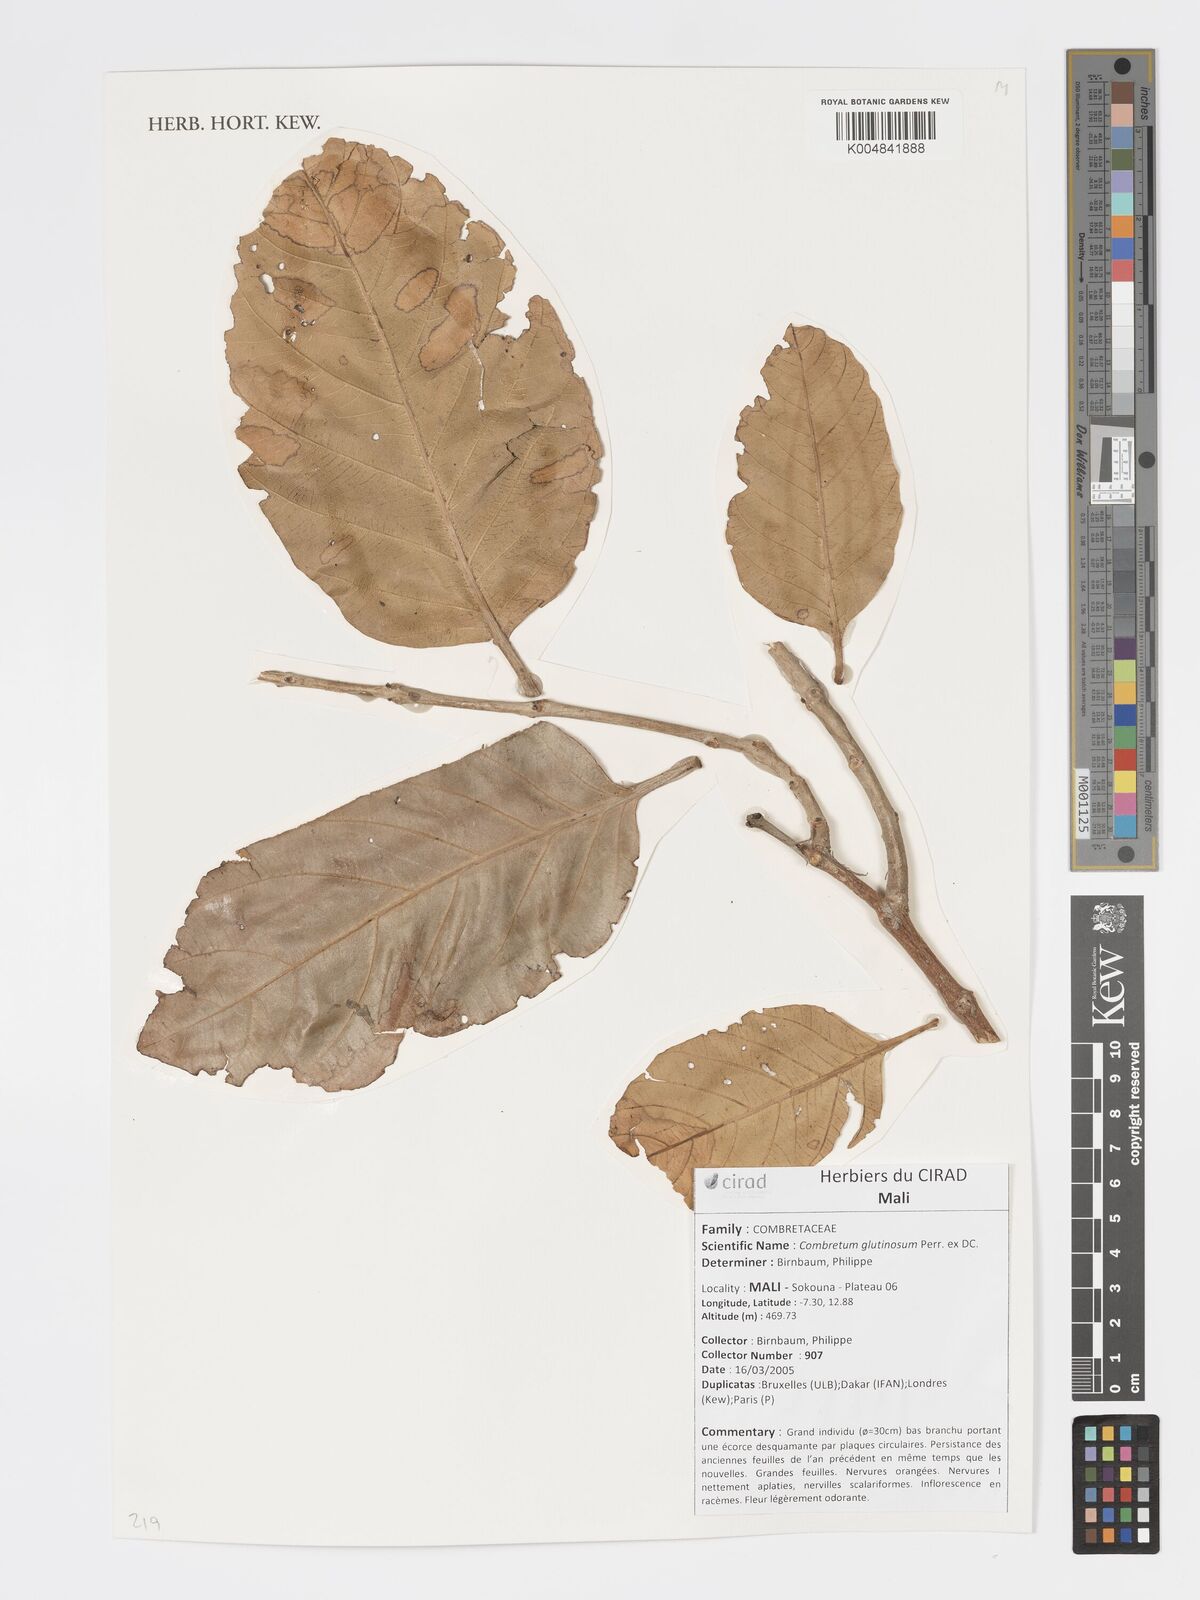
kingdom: Plantae
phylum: Tracheophyta
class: Magnoliopsida
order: Myrtales
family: Combretaceae
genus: Combretum
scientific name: Combretum
